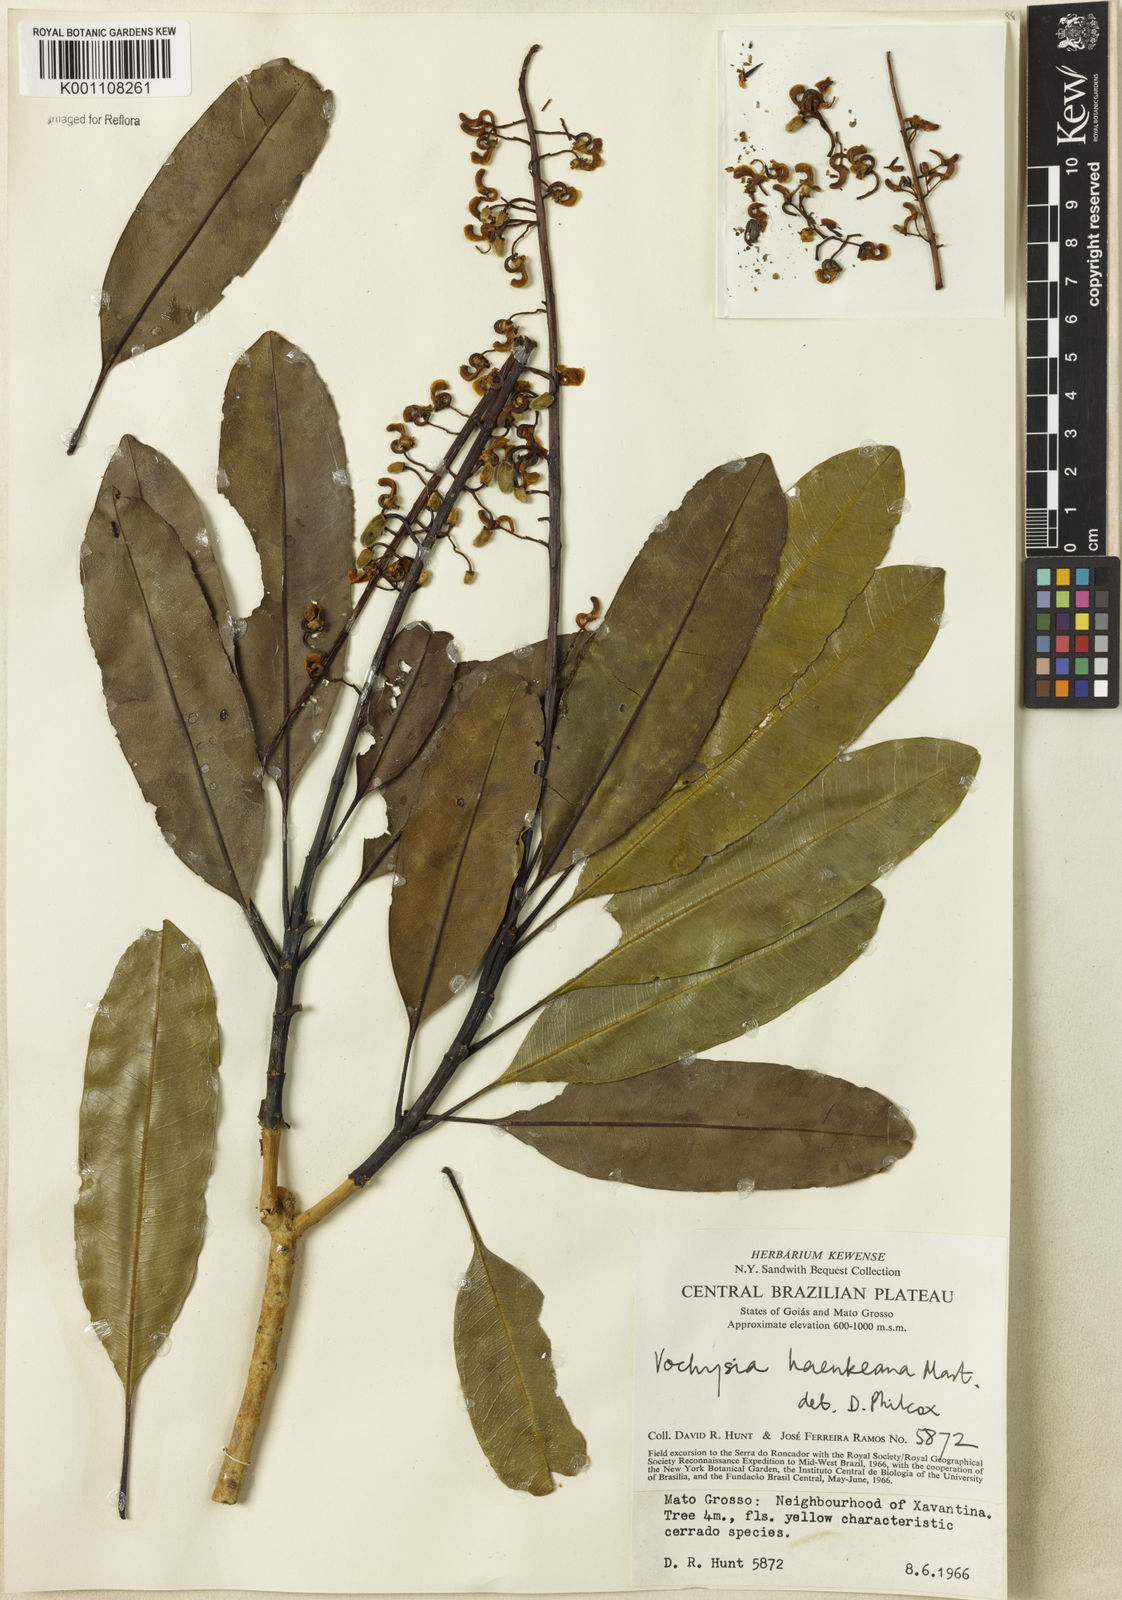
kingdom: Plantae
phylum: Tracheophyta
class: Magnoliopsida
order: Myrtales
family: Vochysiaceae
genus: Vochysia
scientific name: Vochysia haenkeana
